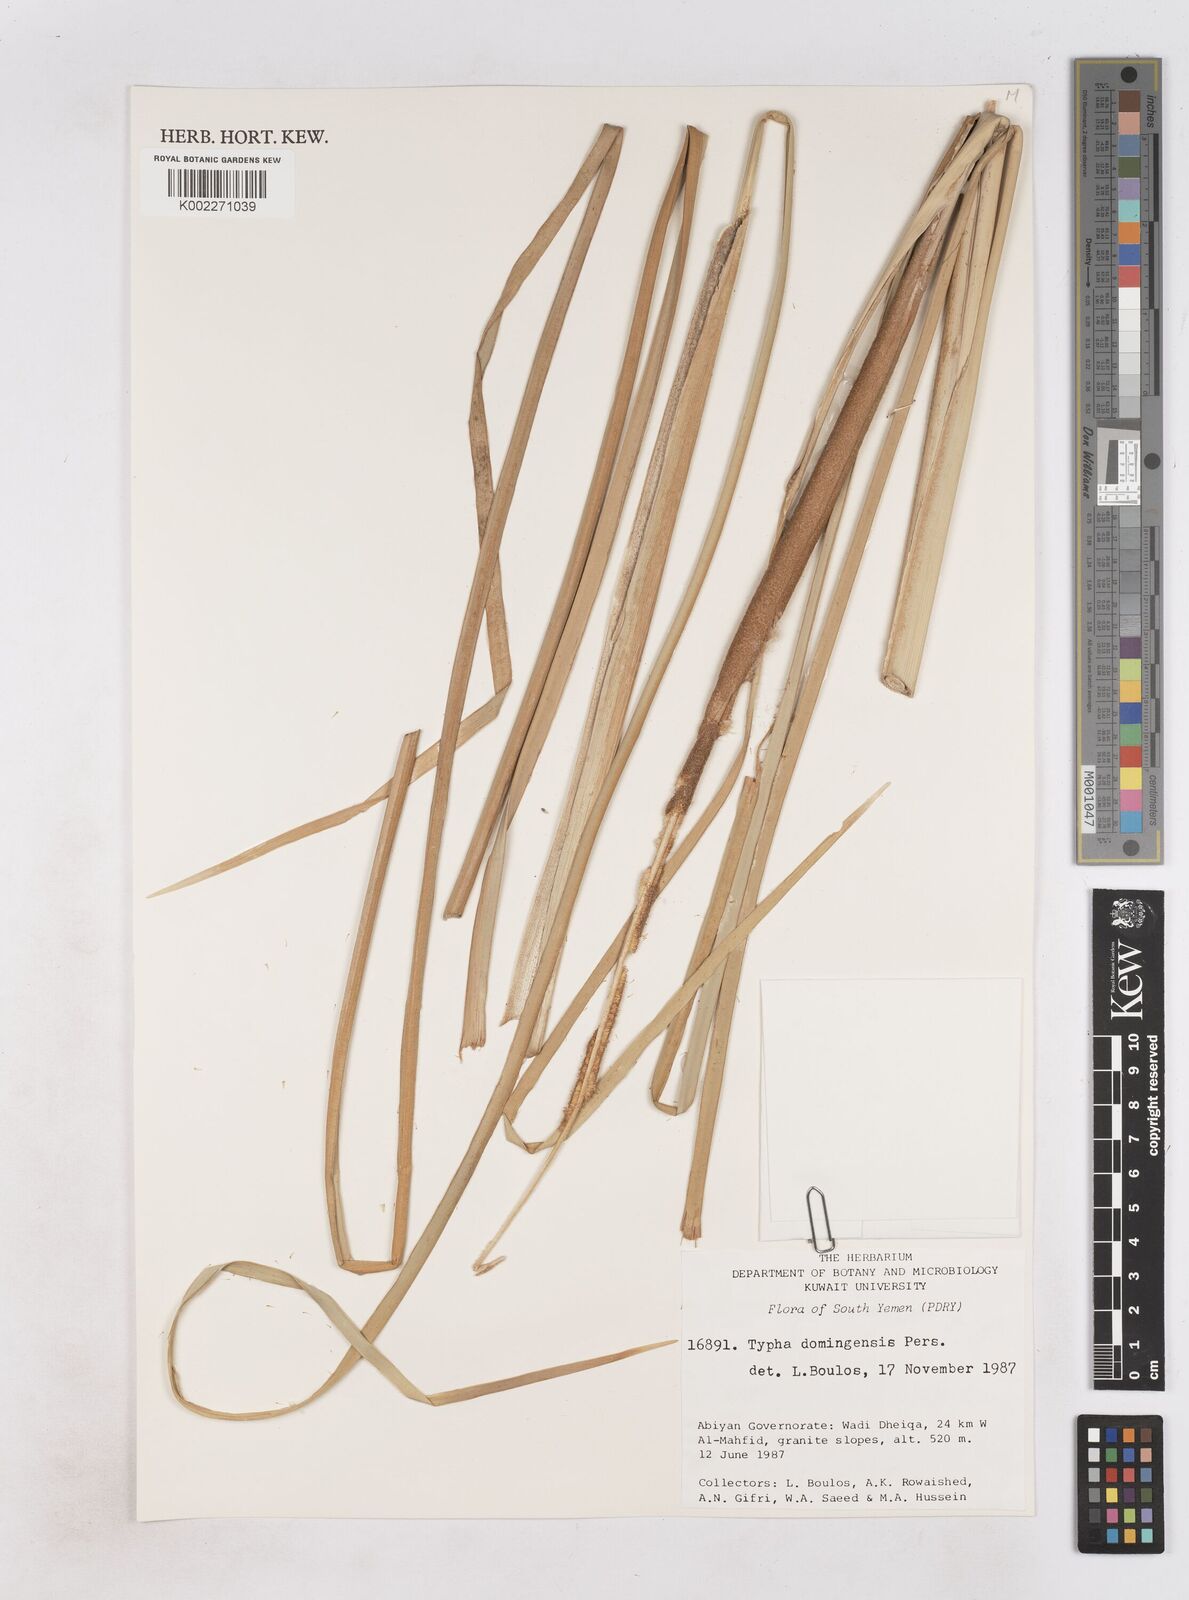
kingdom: Plantae
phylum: Tracheophyta
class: Liliopsida
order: Poales
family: Typhaceae
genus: Typha
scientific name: Typha domingensis
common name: Southern cattail
